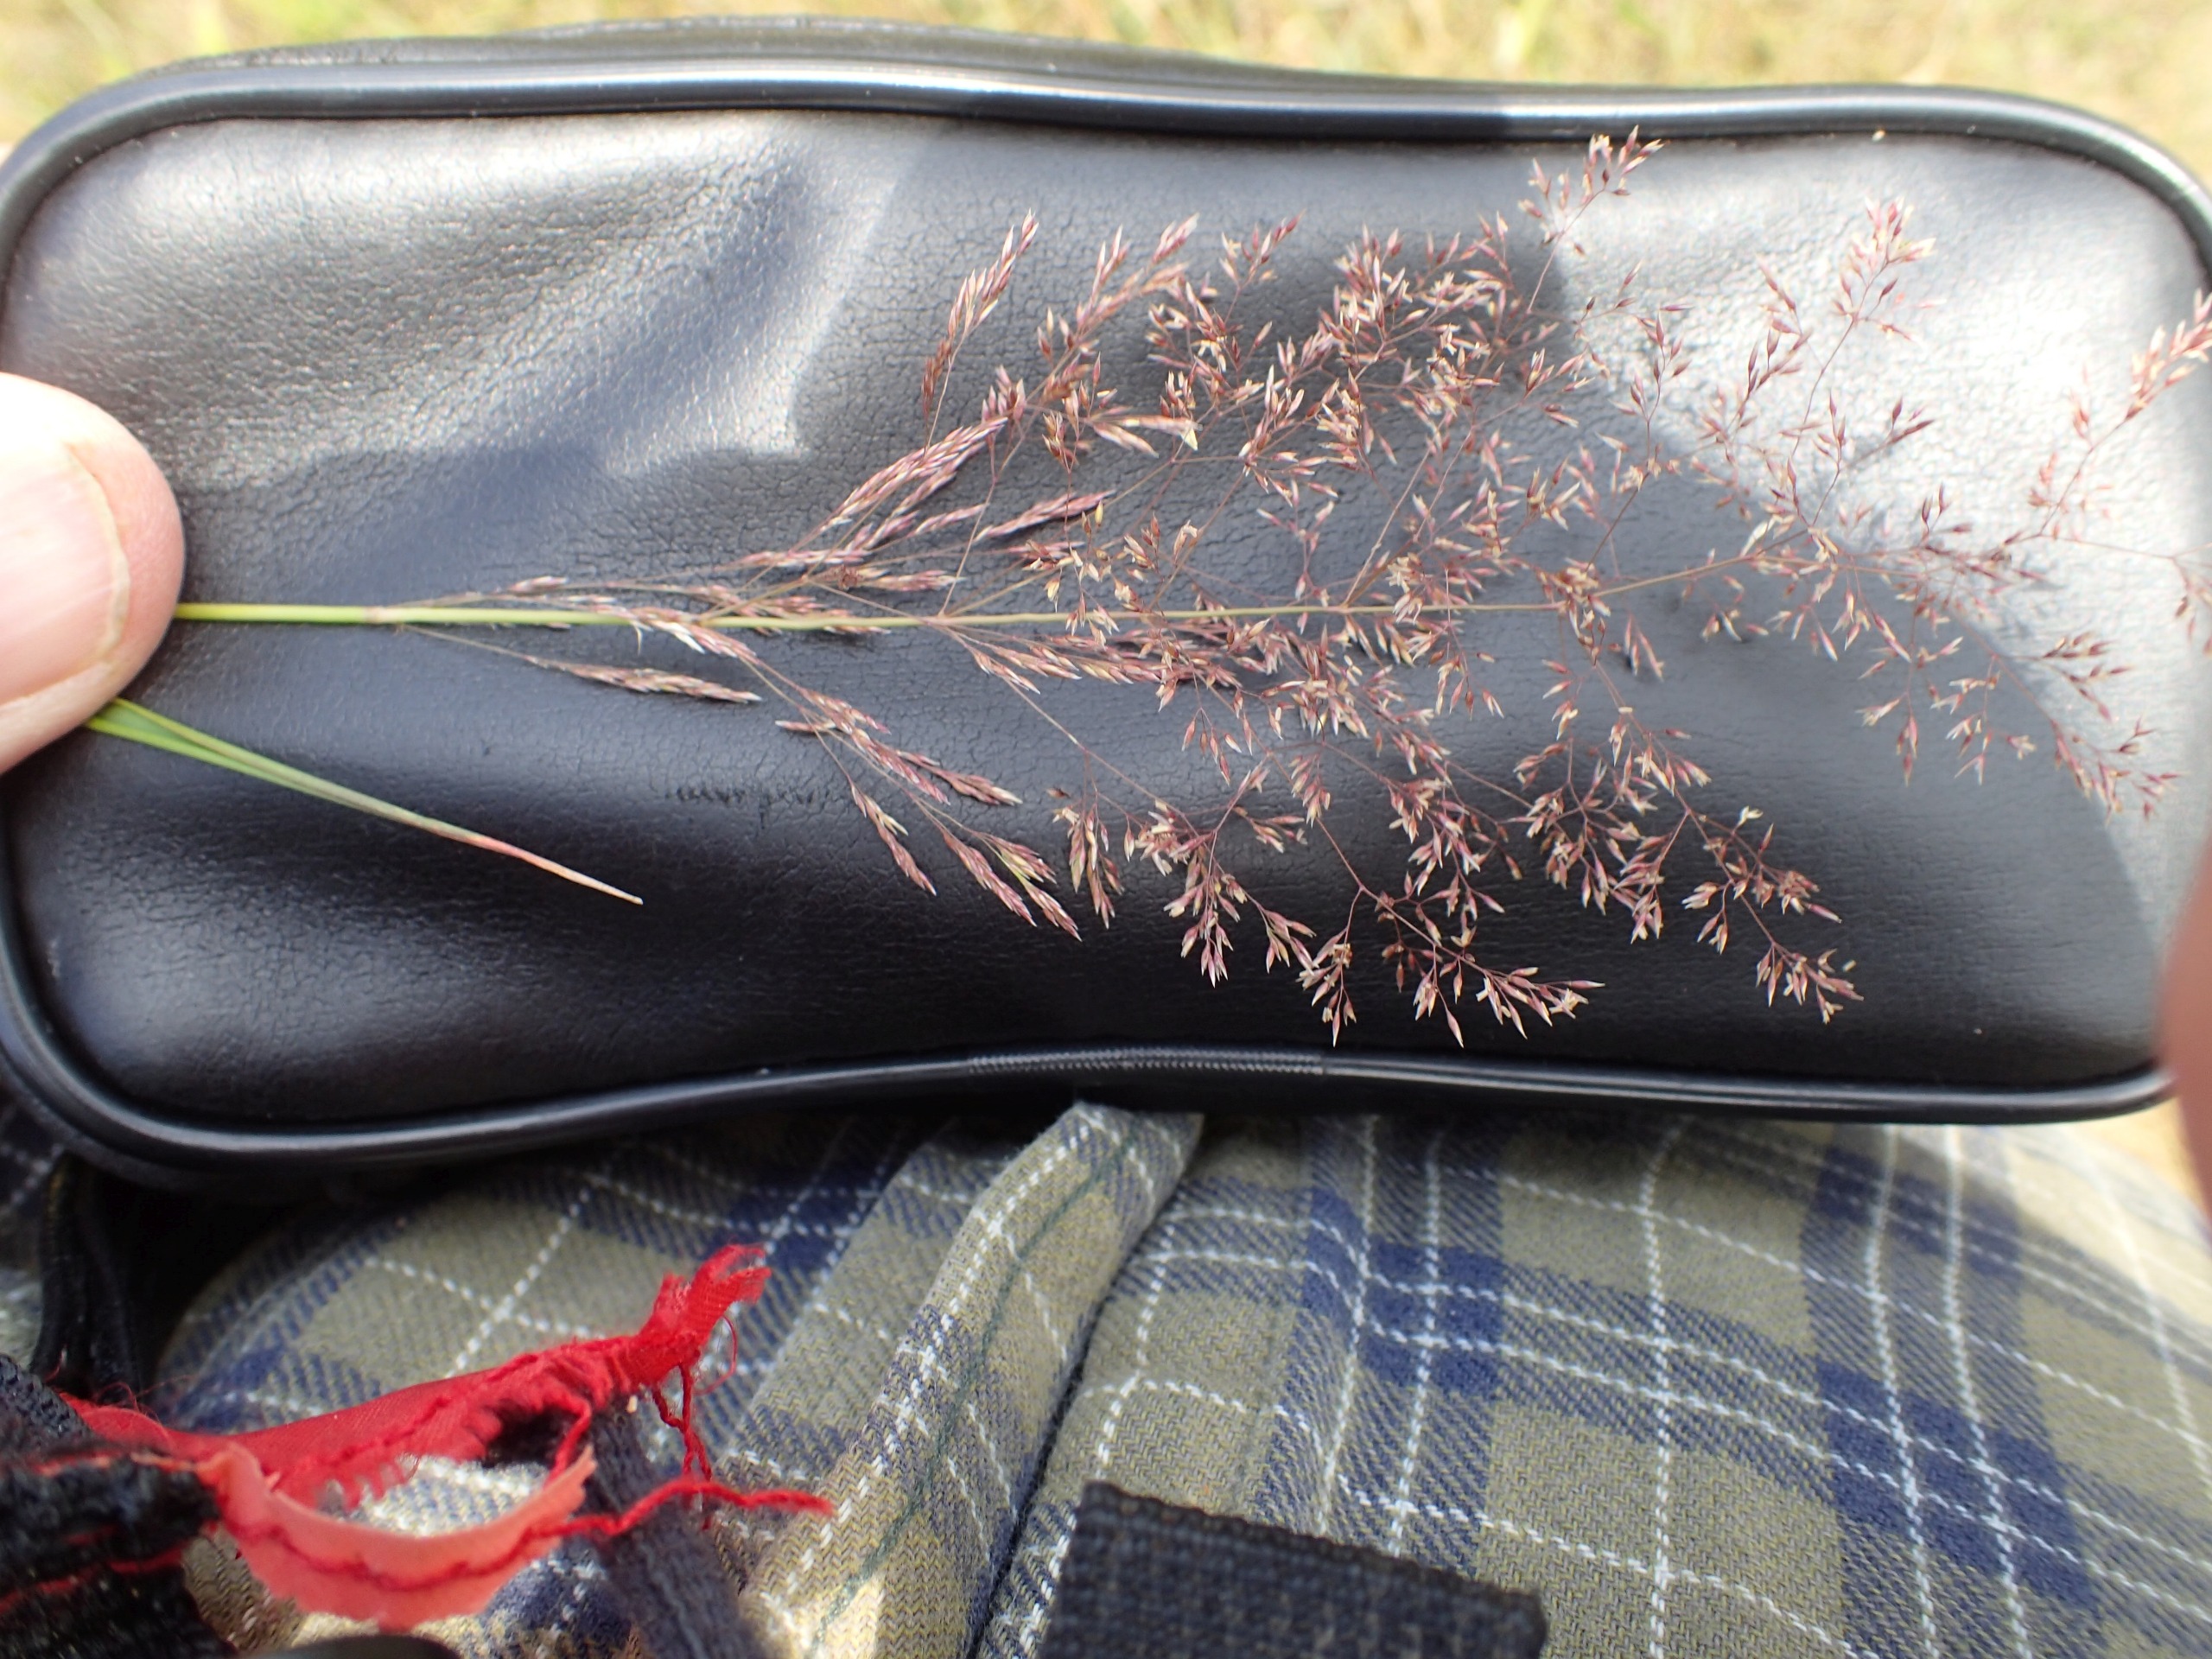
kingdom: Plantae
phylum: Tracheophyta
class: Liliopsida
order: Poales
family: Poaceae
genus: Agrostis
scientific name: Agrostis capillaris
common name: Almindelig hvene
